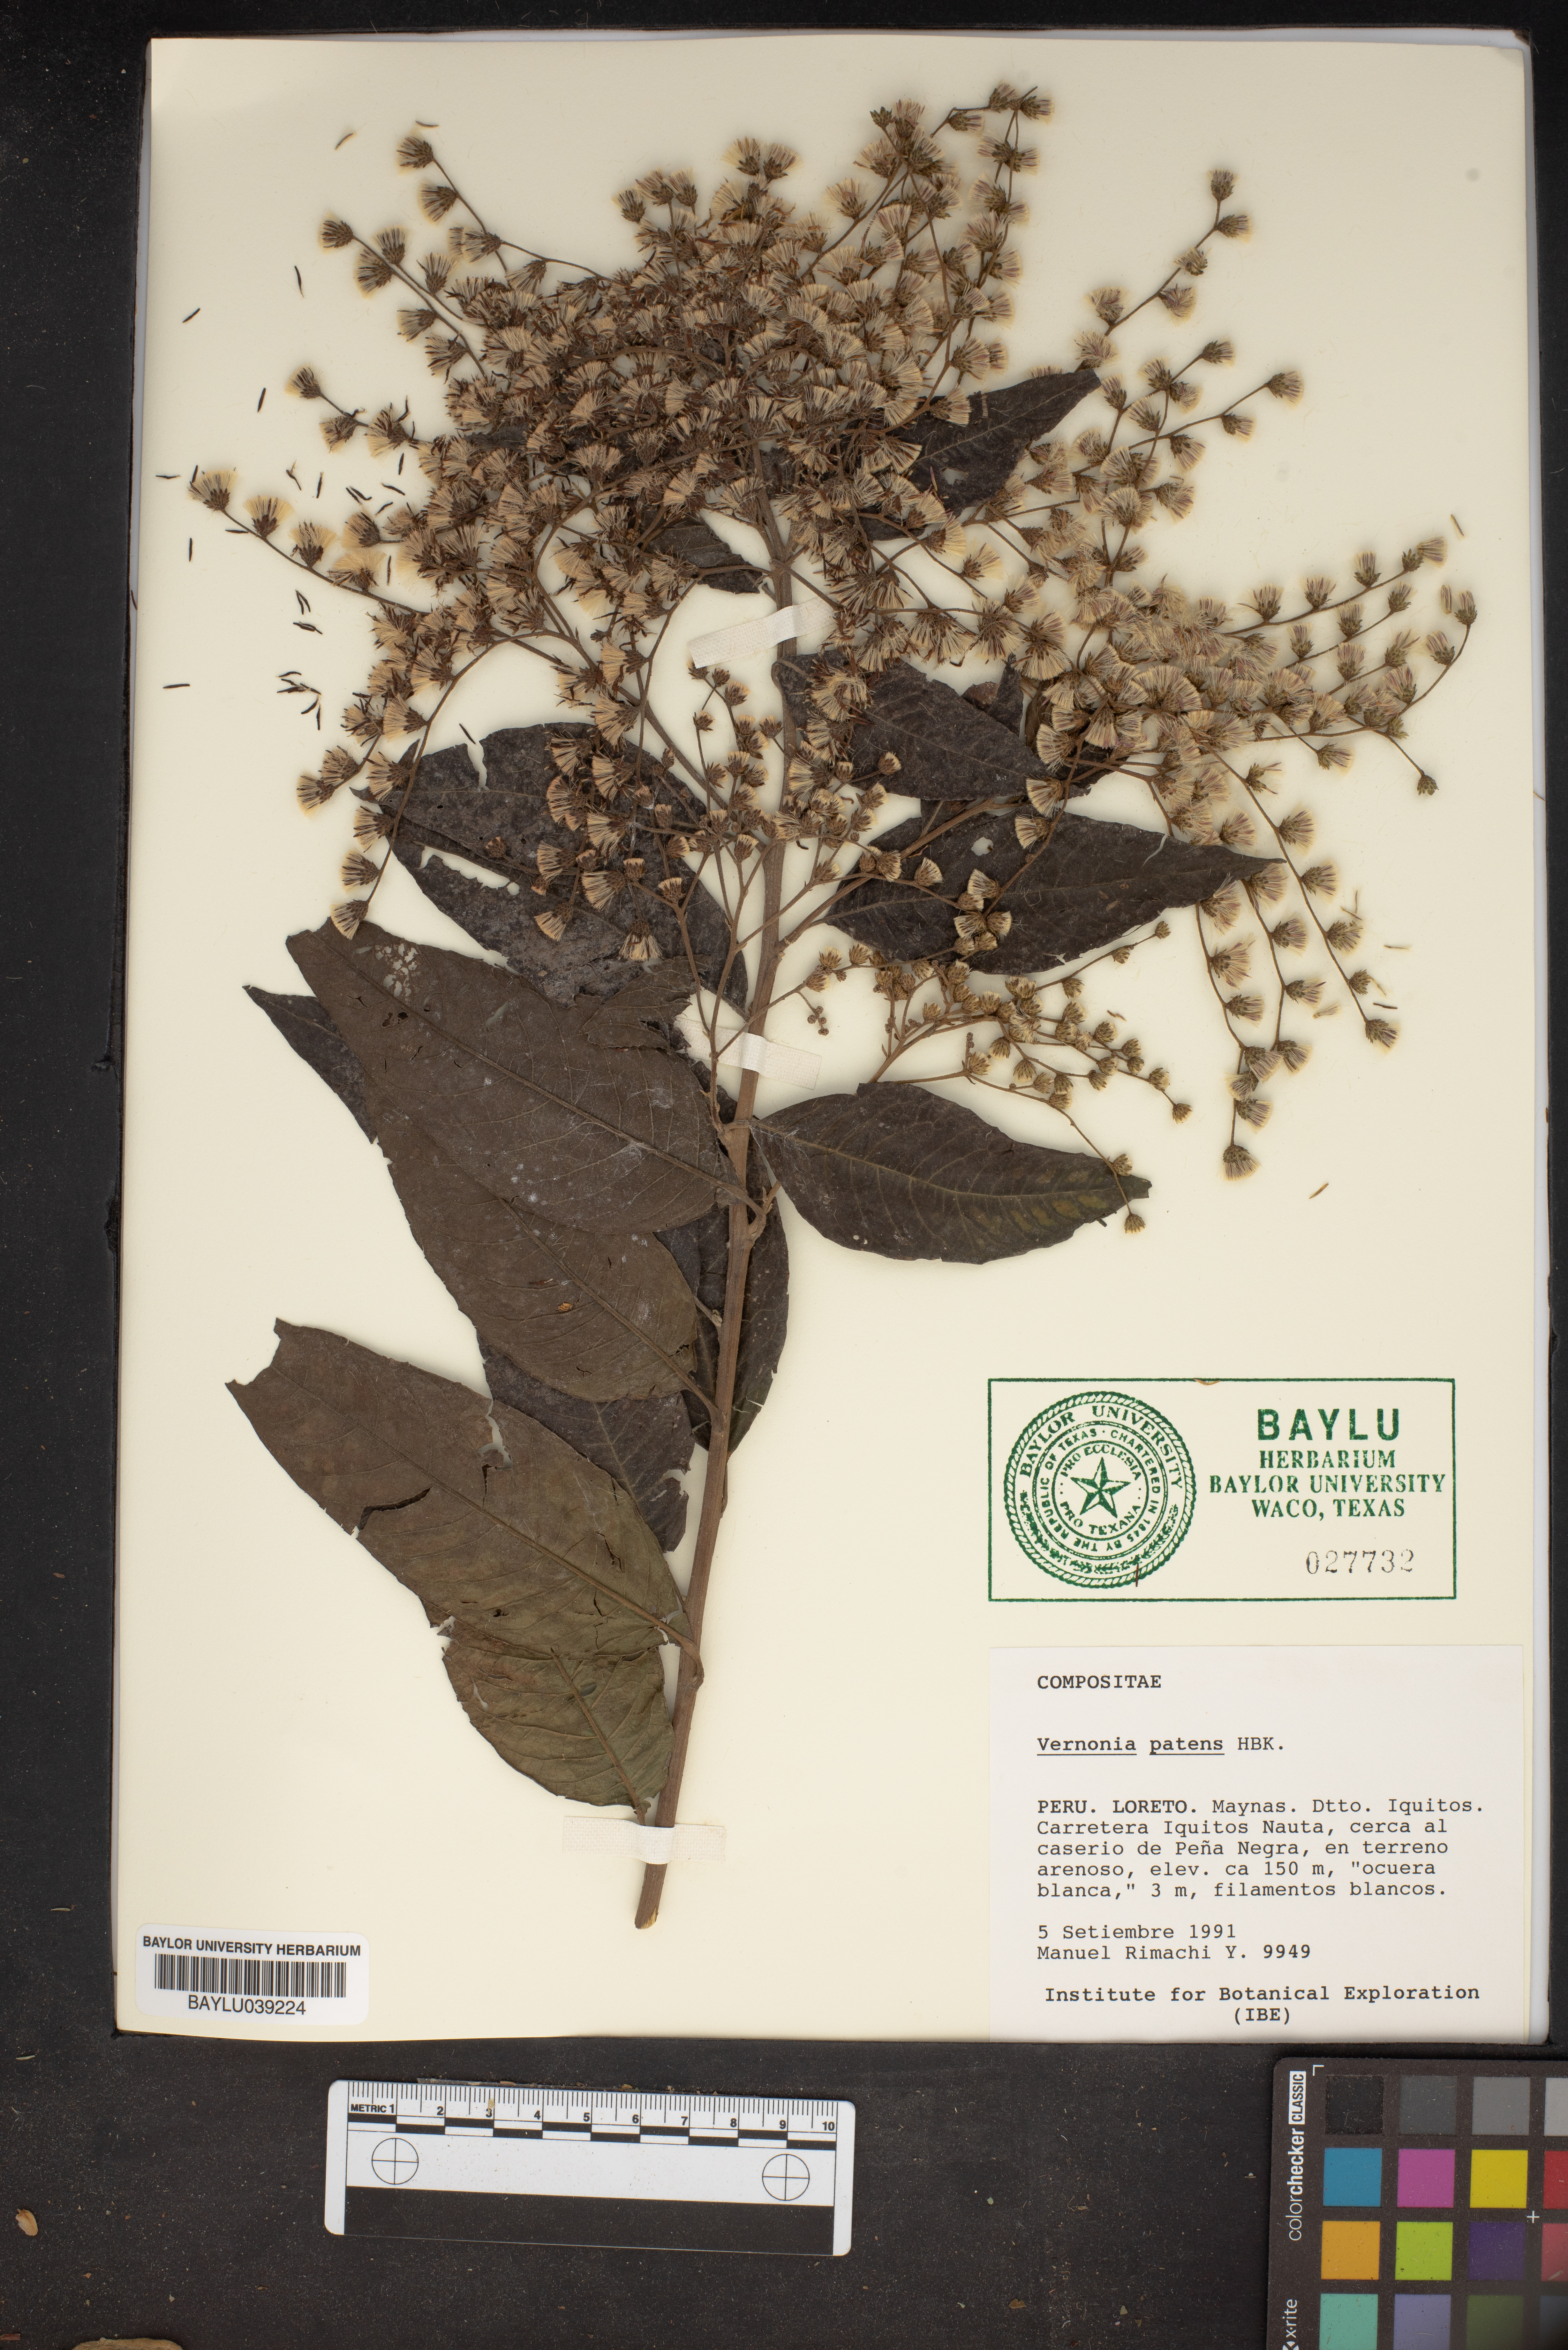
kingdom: Plantae
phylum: Tracheophyta
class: Magnoliopsida
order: Asterales
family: Asteraceae
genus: Vernonanthura
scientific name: Vernonanthura patens
